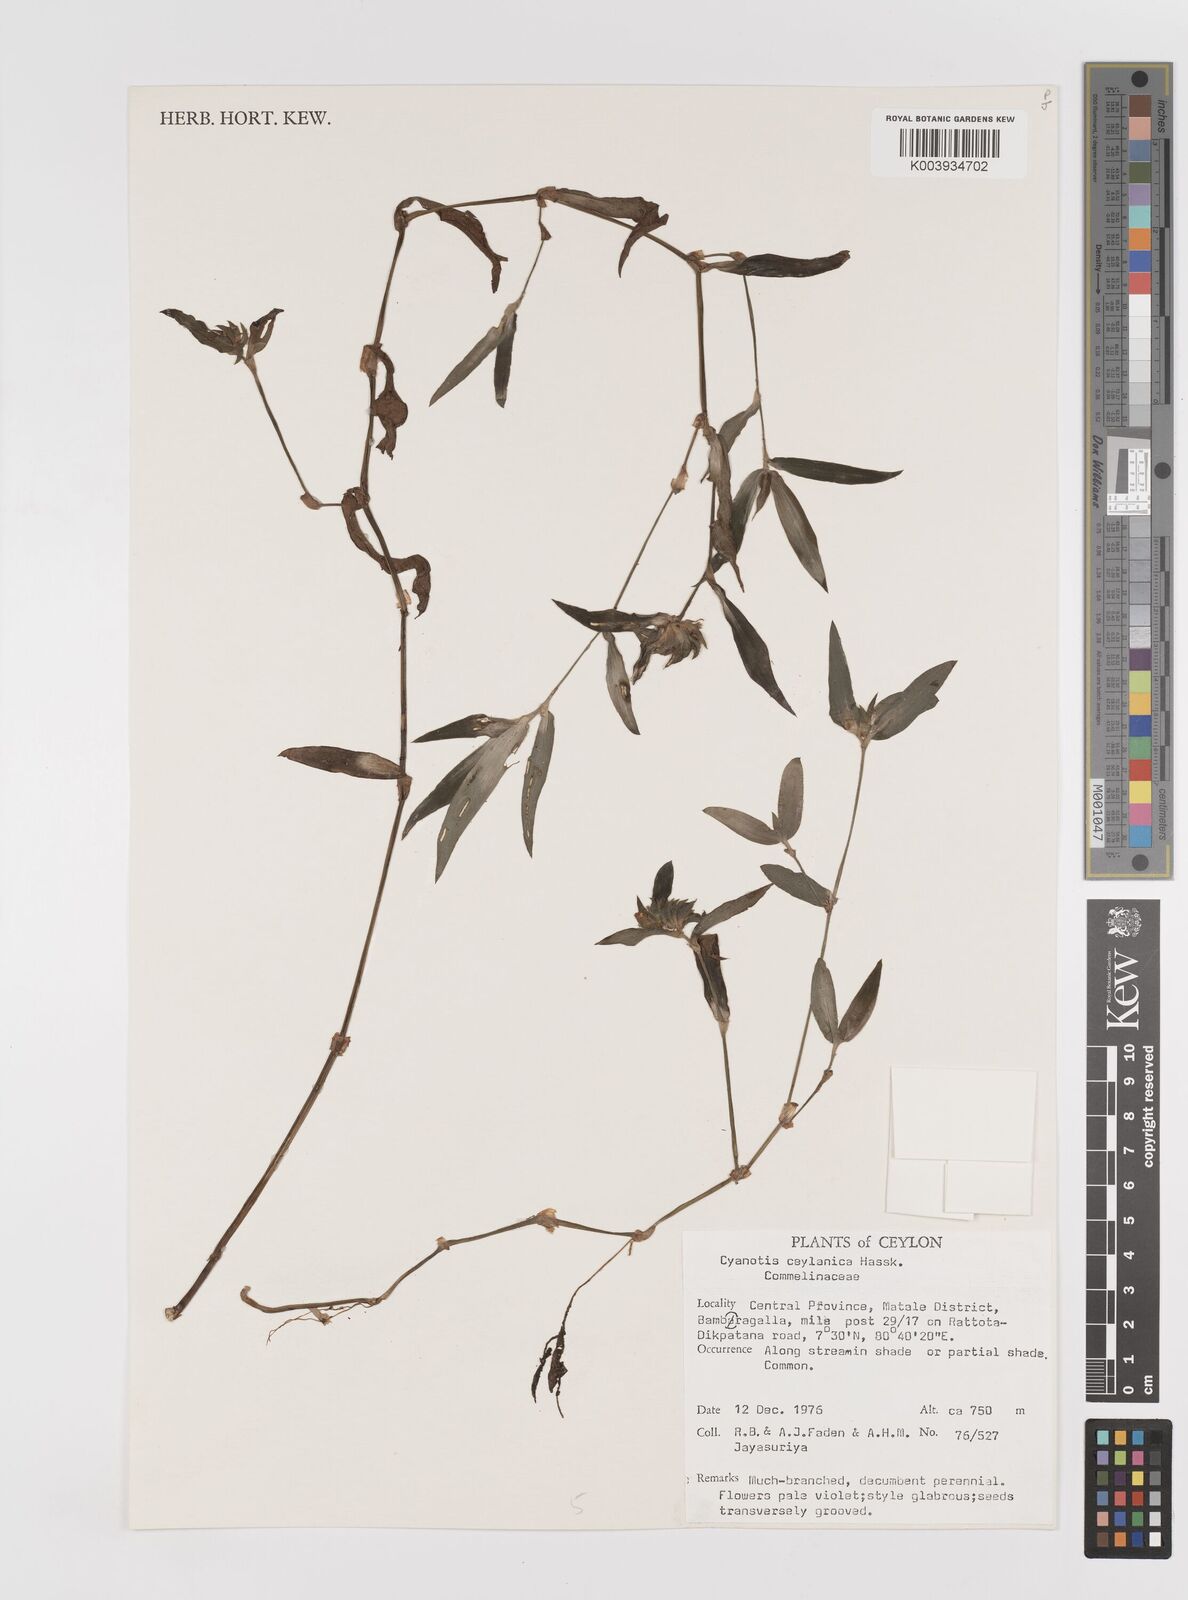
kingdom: Plantae
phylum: Tracheophyta
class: Liliopsida
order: Commelinales
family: Commelinaceae
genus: Cyanotis
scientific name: Cyanotis ceylanica
